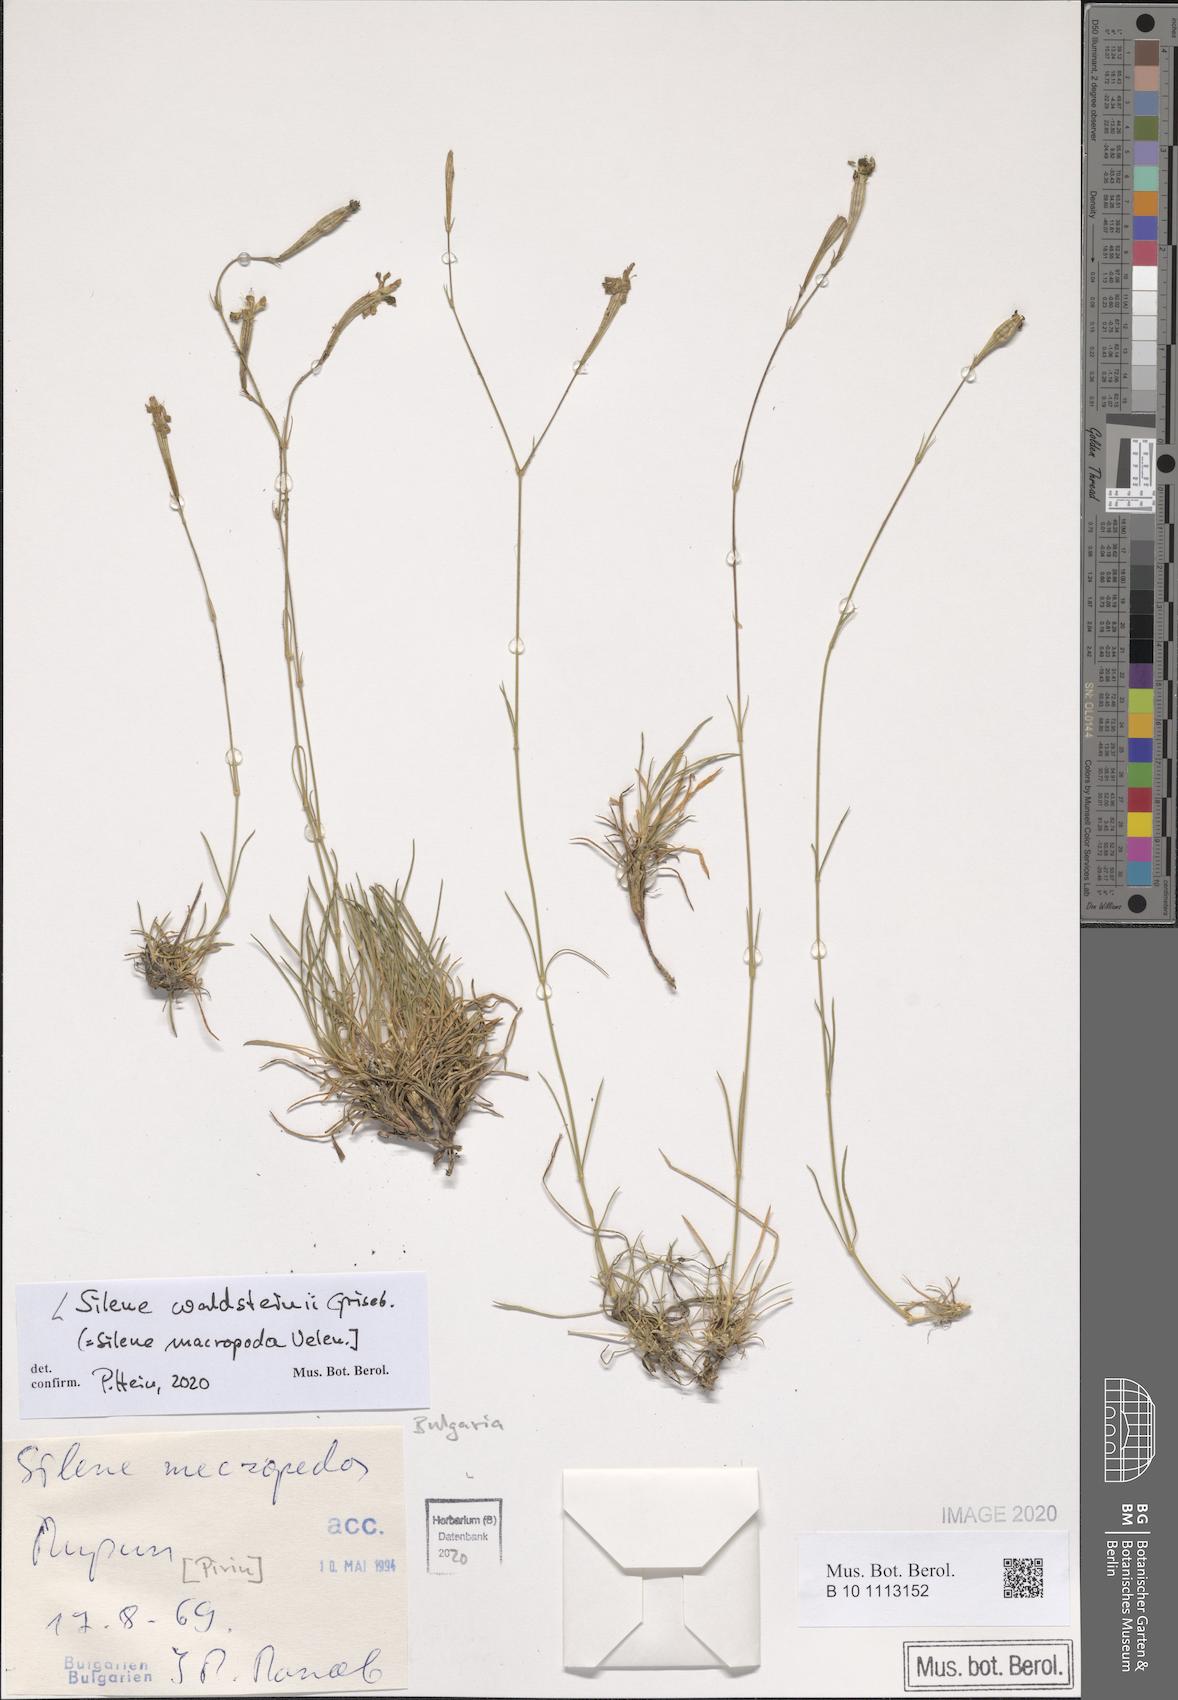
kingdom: Plantae
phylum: Tracheophyta
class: Magnoliopsida
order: Caryophyllales
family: Caryophyllaceae
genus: Silene
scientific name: Silene waldsteinii
